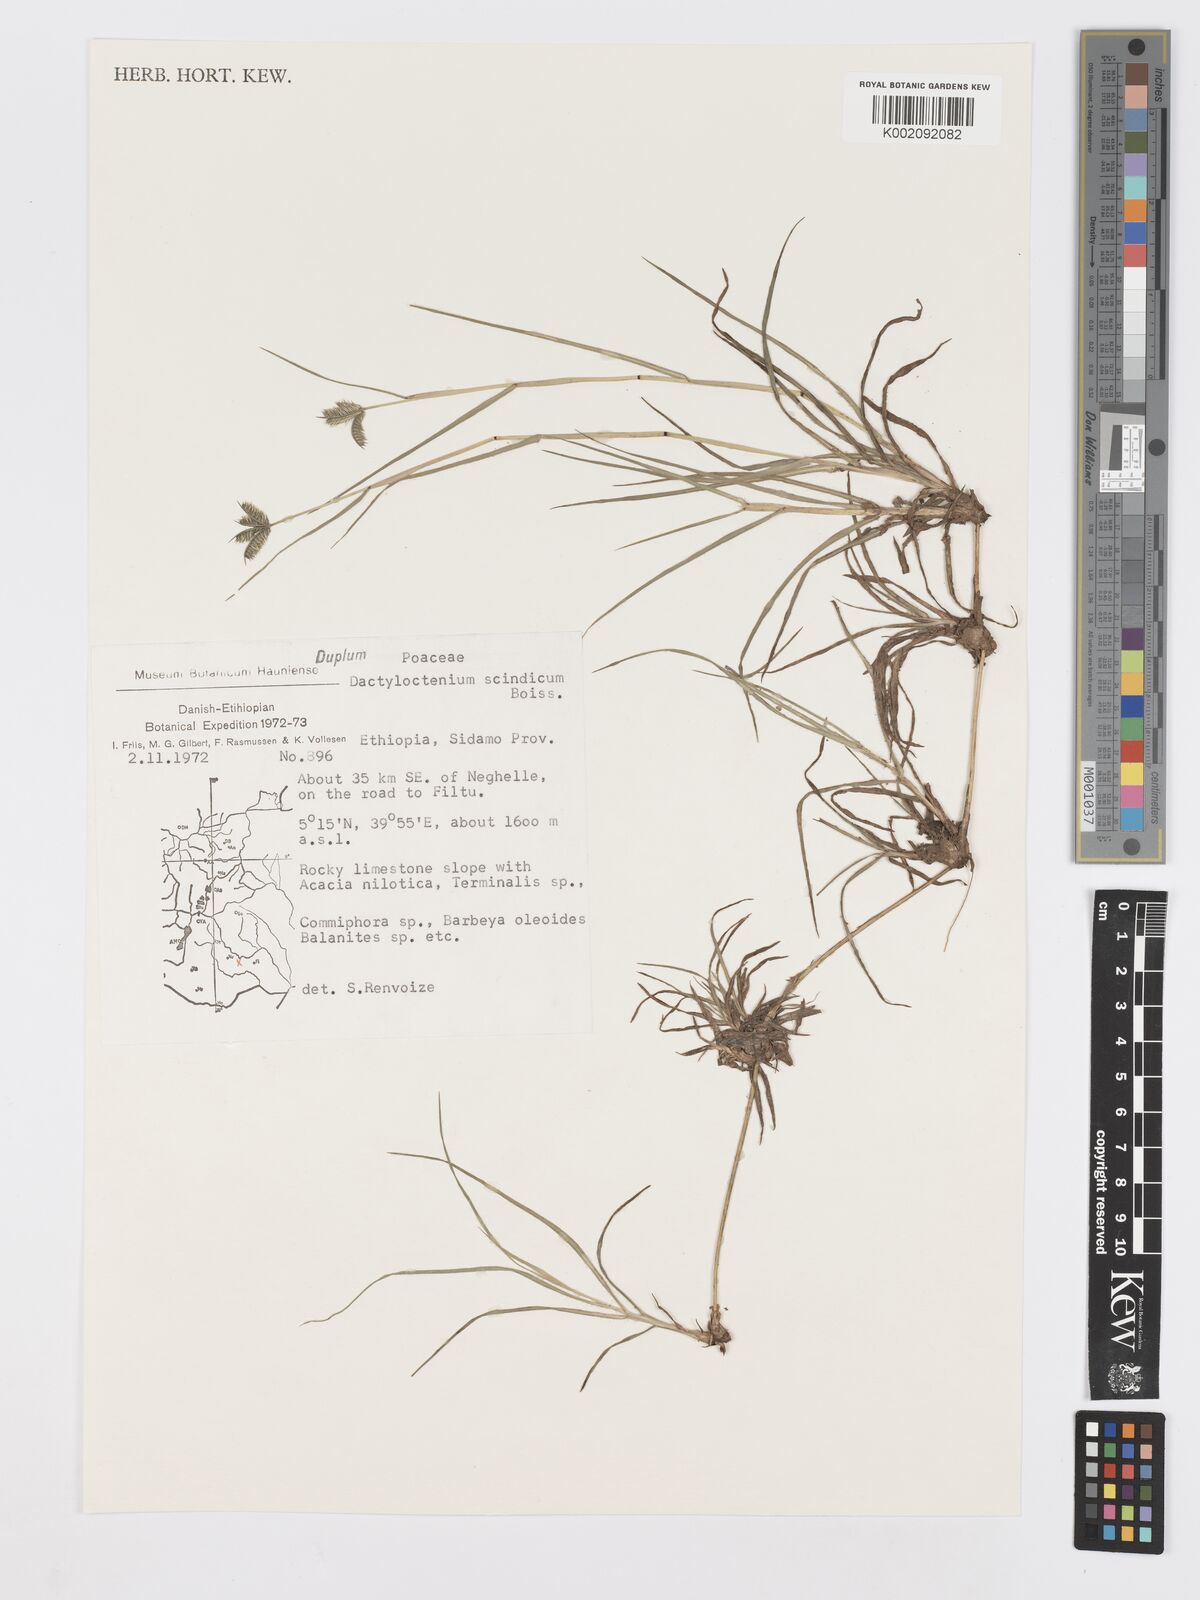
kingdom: Plantae
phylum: Tracheophyta
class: Liliopsida
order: Poales
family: Poaceae
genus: Dactyloctenium
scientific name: Dactyloctenium scindicum
